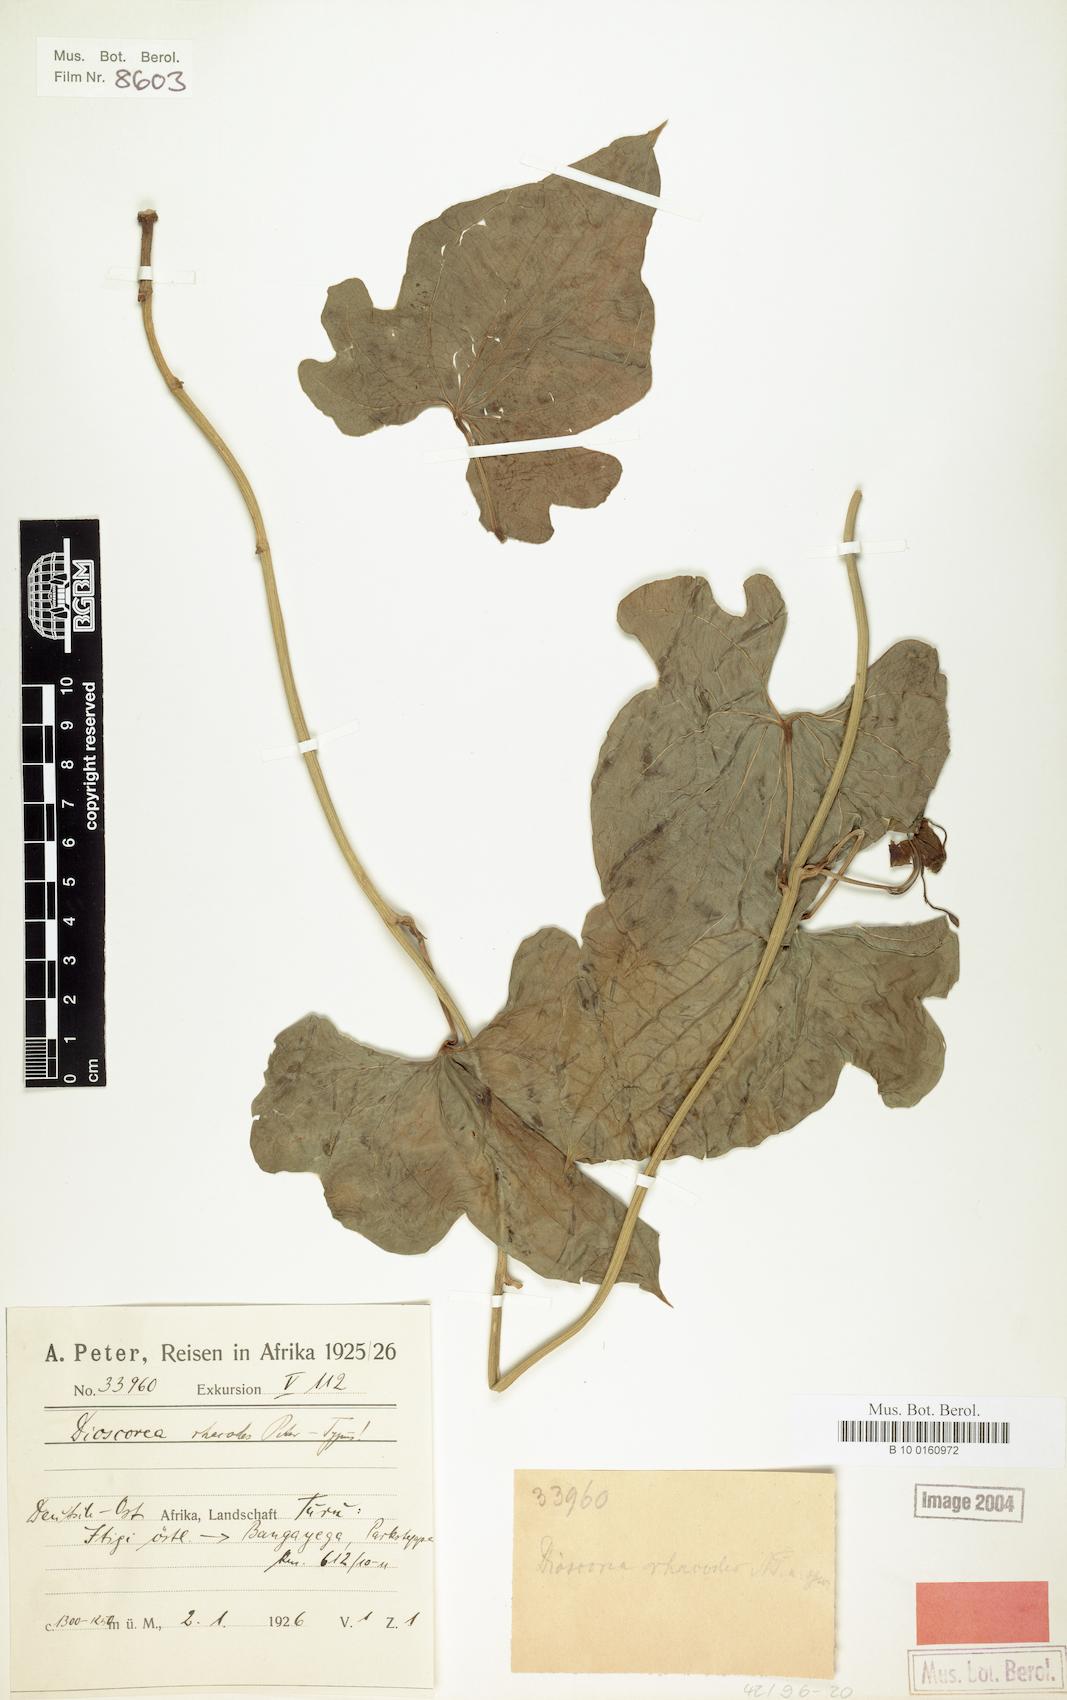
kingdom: Plantae
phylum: Tracheophyta
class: Liliopsida
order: Dioscoreales
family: Dioscoreaceae
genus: Dioscorea
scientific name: Dioscorea buchananii
